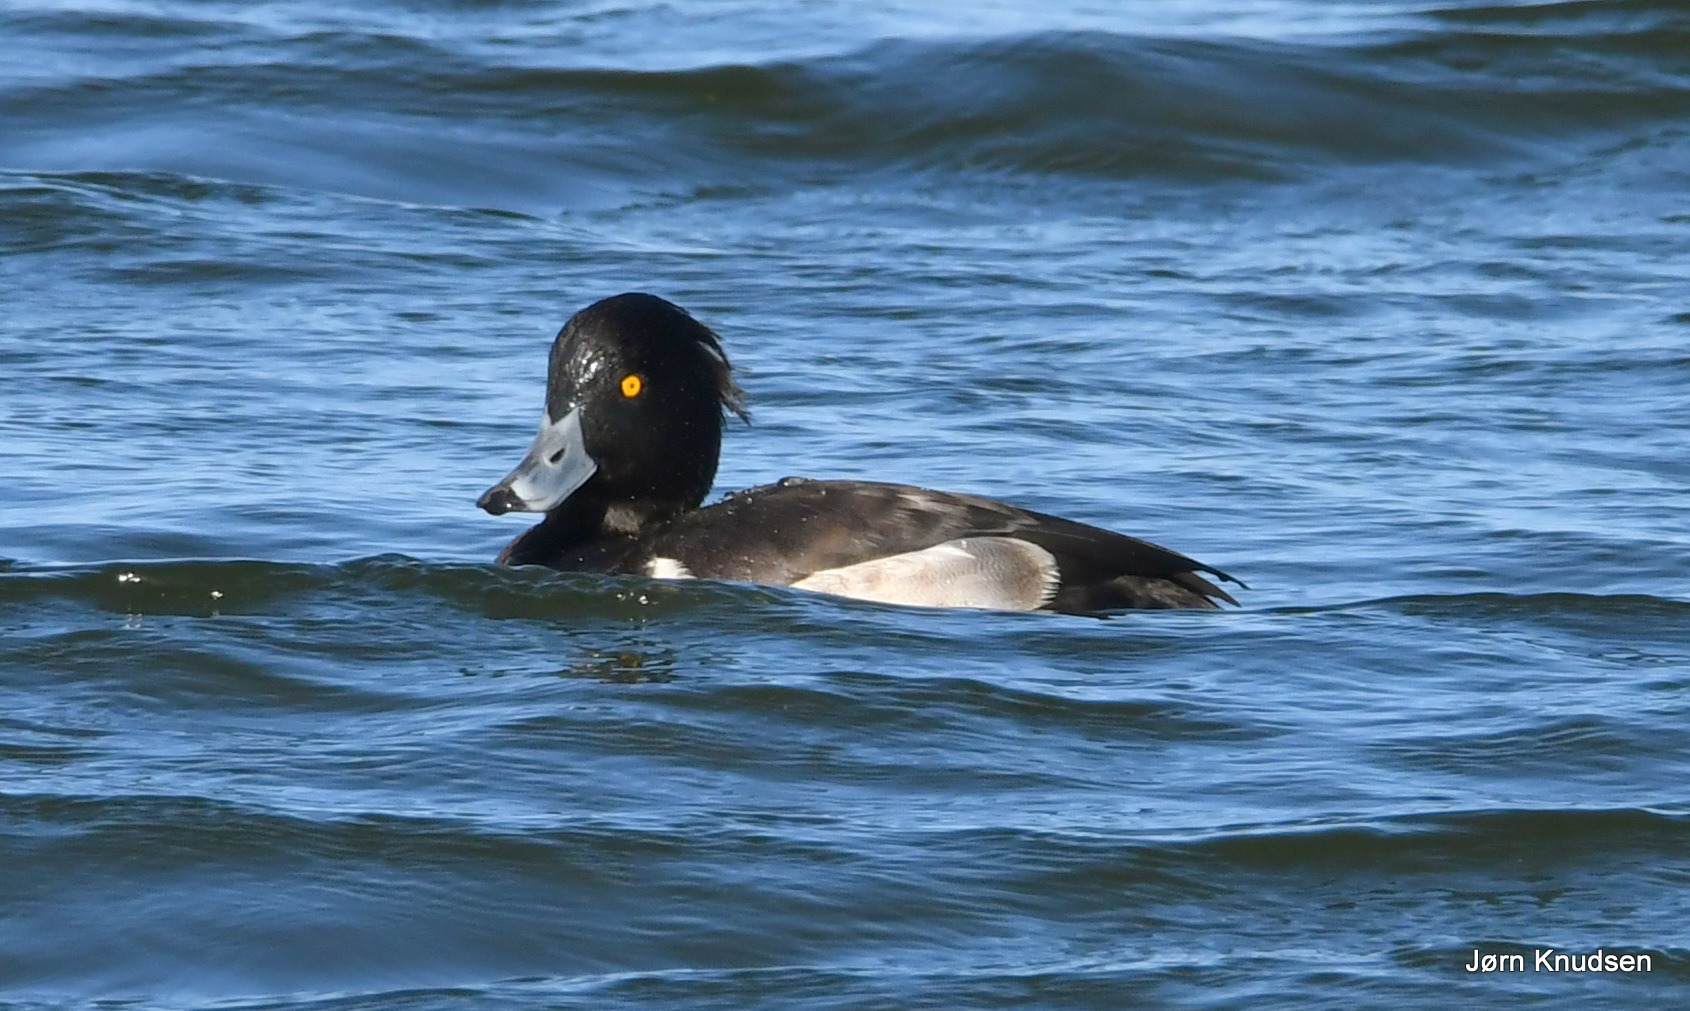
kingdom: Animalia
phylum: Chordata
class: Aves
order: Anseriformes
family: Anatidae
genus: Aythya
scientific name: Aythya fuligula
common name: Troldand
